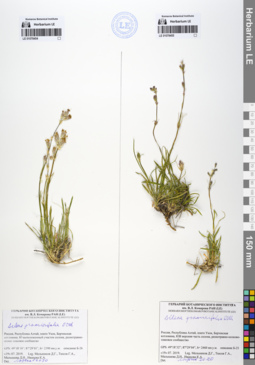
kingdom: Plantae
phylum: Tracheophyta
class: Magnoliopsida
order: Caryophyllales
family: Caryophyllaceae
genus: Silene
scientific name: Silene graminifolia
